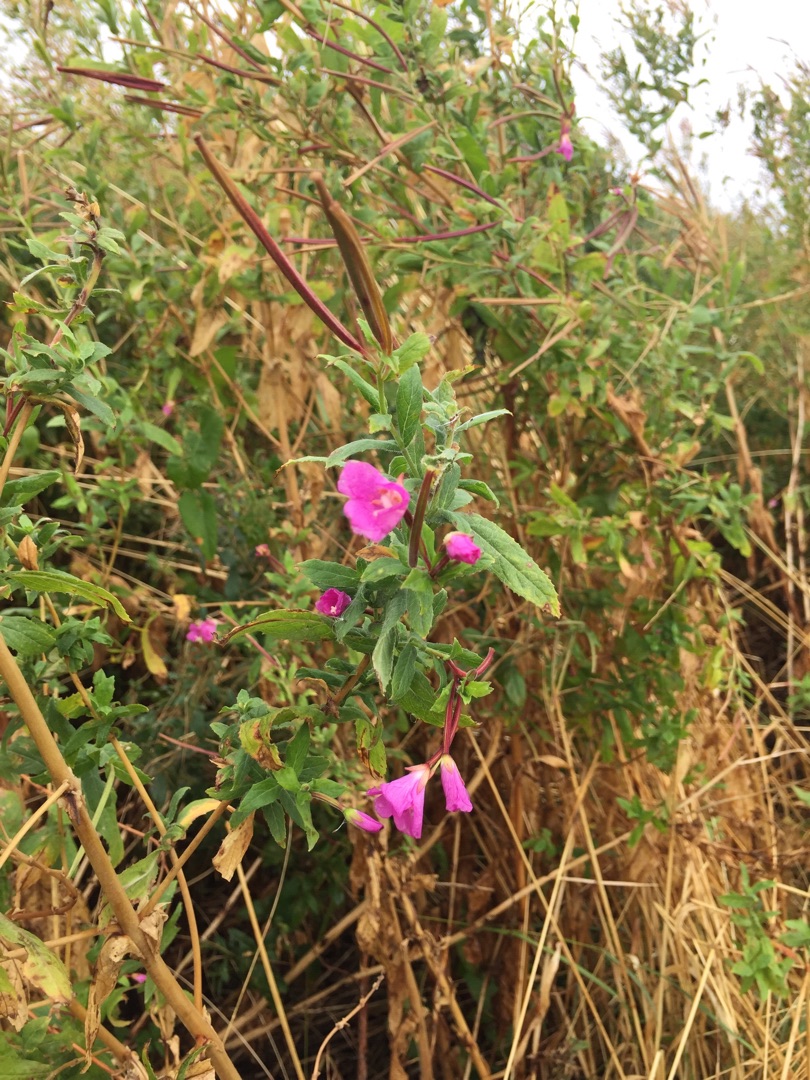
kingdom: Plantae
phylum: Tracheophyta
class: Magnoliopsida
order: Myrtales
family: Onagraceae
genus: Epilobium
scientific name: Epilobium hirsutum
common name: Lådden dueurt
